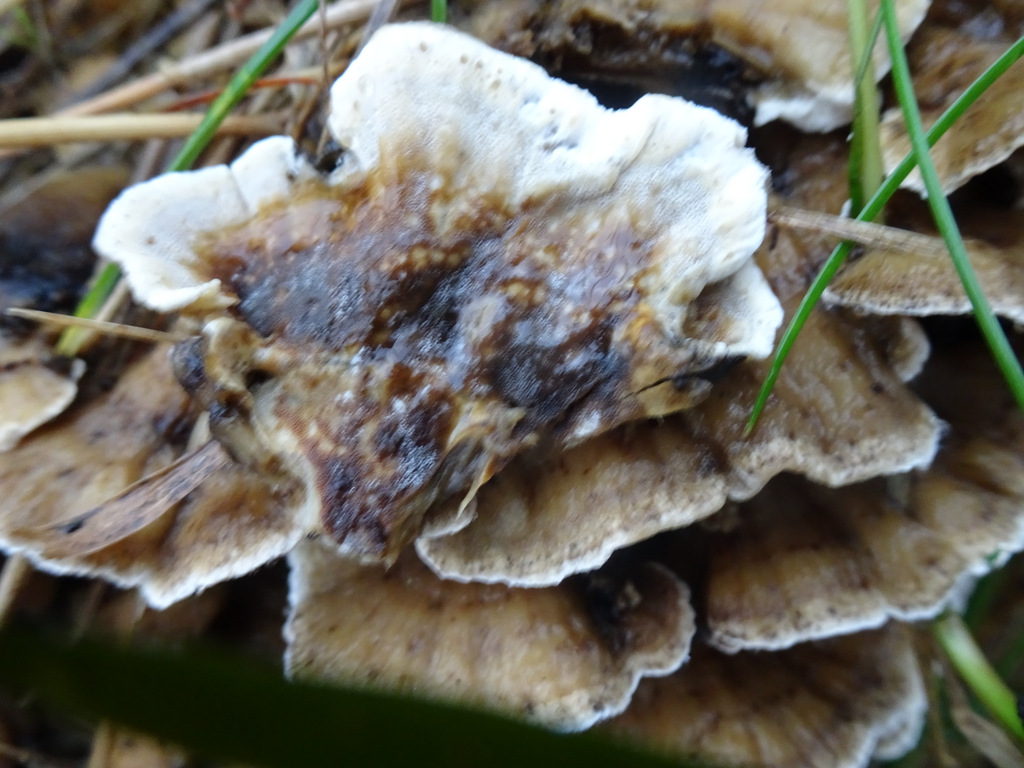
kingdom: Fungi
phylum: Basidiomycota
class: Agaricomycetes
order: Polyporales
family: Phanerochaetaceae
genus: Bjerkandera
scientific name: Bjerkandera adusta
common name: sveden sodporesvamp
